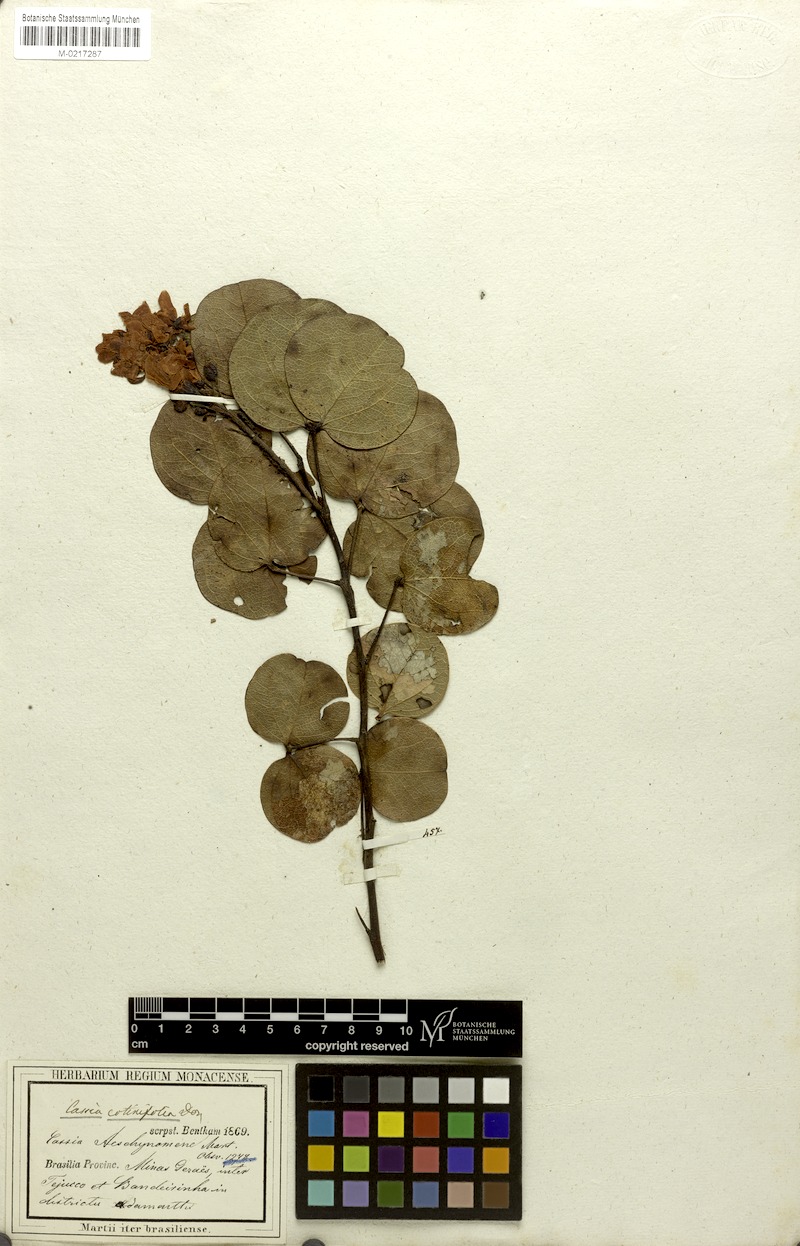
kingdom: Plantae
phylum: Tracheophyta
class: Magnoliopsida
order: Fabales
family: Fabaceae
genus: Chamaecrista
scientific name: Chamaecrista cotinifolia
